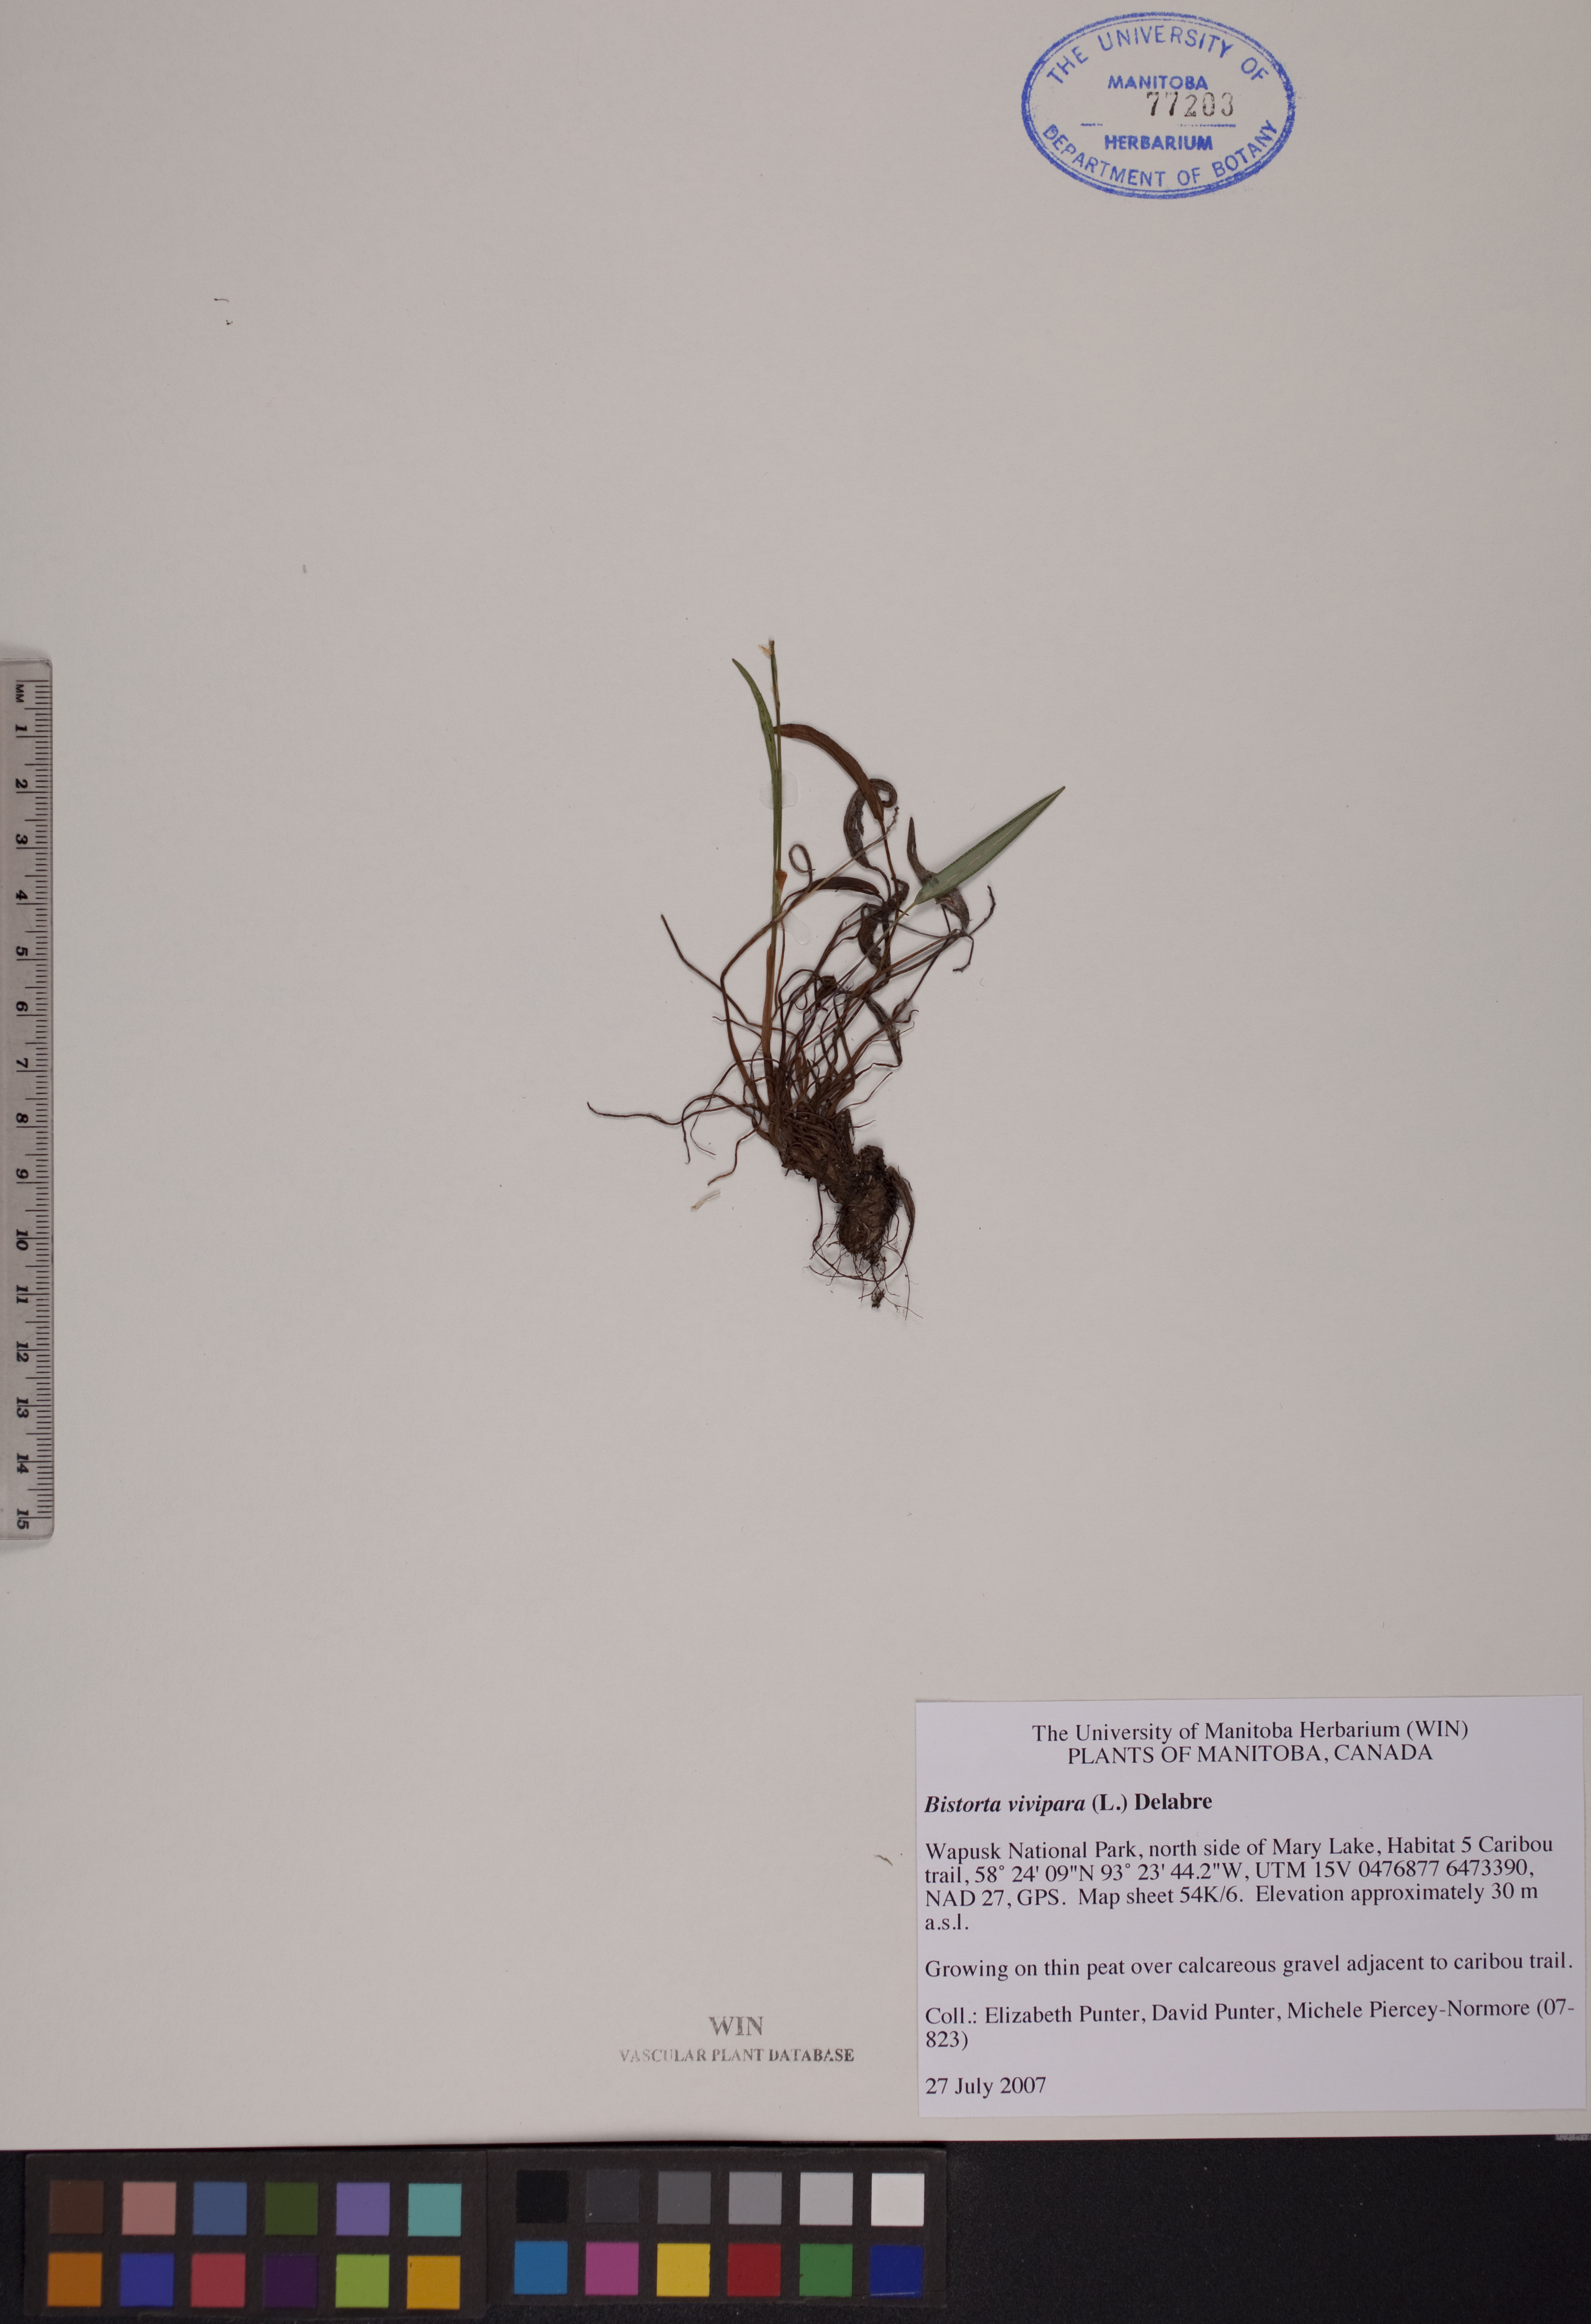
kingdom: Plantae
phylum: Tracheophyta
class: Magnoliopsida
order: Caryophyllales
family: Polygonaceae
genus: Bistorta
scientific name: Bistorta vivipara
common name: Alpine bistort
